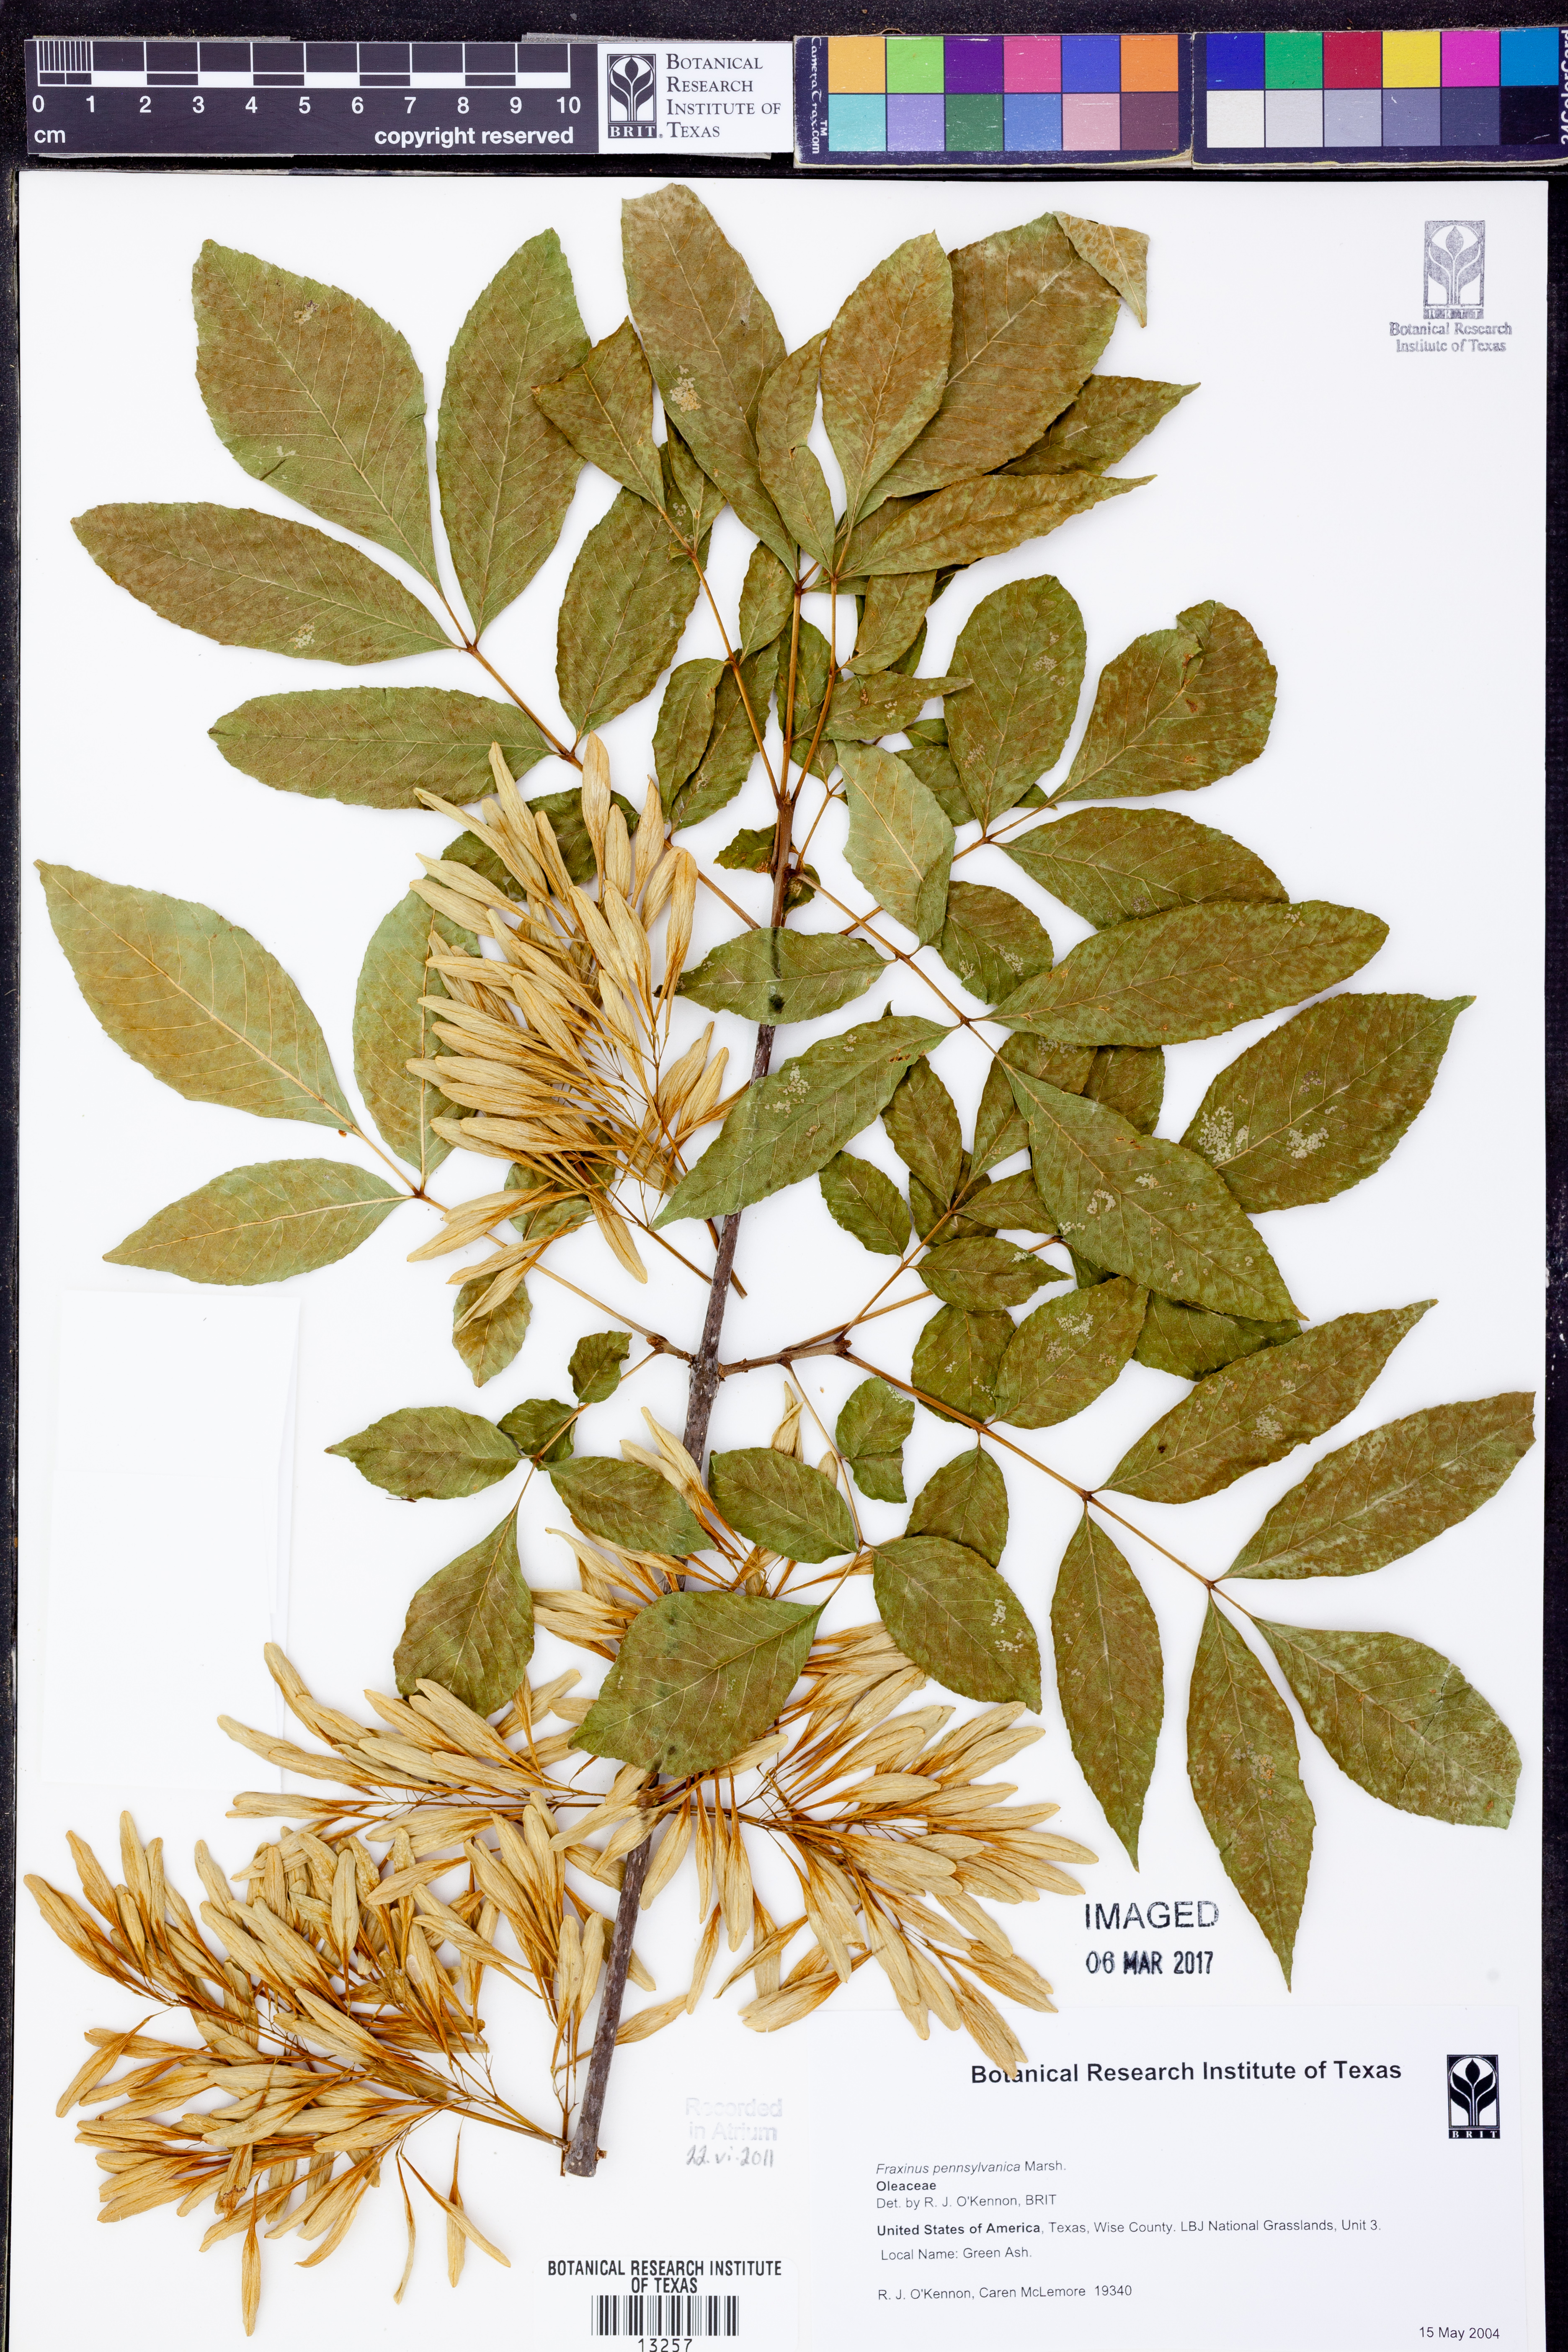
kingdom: Plantae
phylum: Tracheophyta
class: Magnoliopsida
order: Lamiales
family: Oleaceae
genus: Fraxinus
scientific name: Fraxinus pennsylvanica
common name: Green ash
